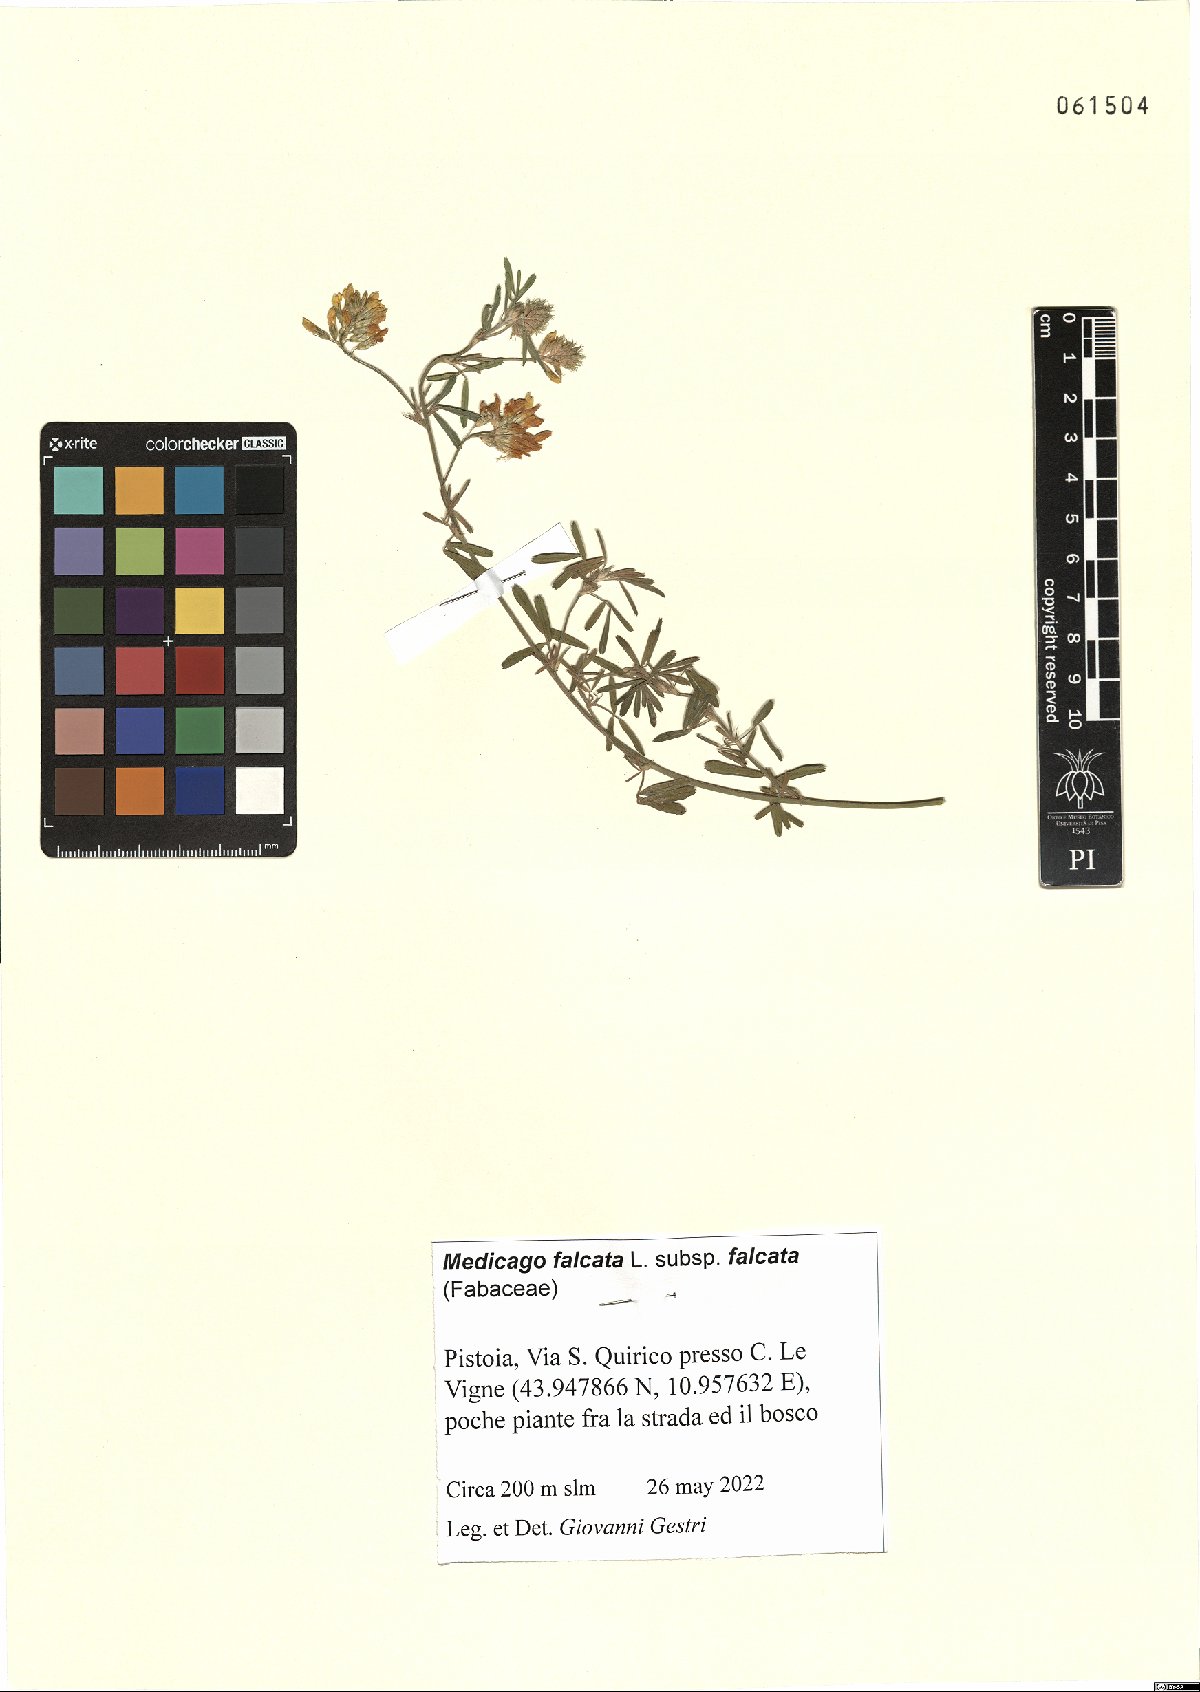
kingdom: Plantae
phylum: Tracheophyta
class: Magnoliopsida
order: Fabales
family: Fabaceae
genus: Medicago
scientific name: Medicago falcata
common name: Sickle medick
